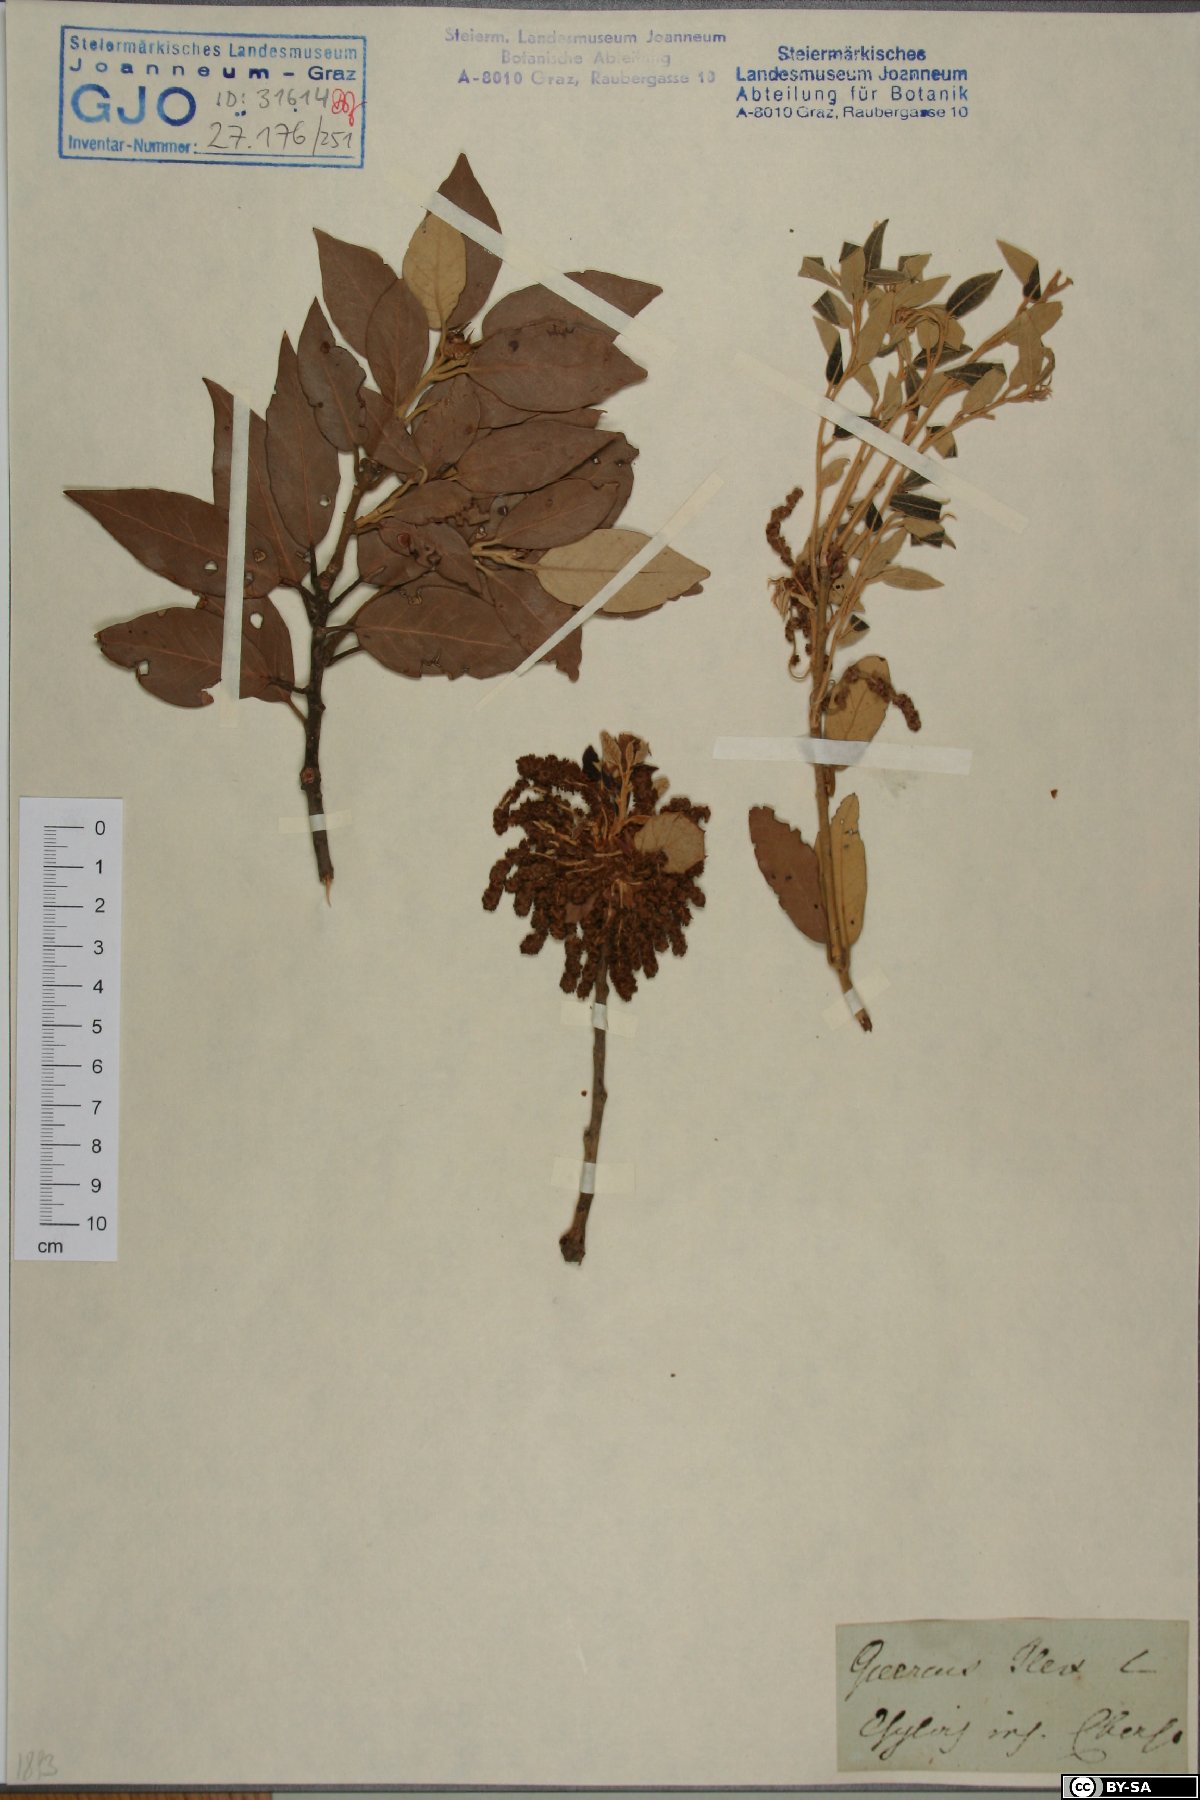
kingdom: Plantae
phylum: Tracheophyta
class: Magnoliopsida
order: Fagales
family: Fagaceae
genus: Quercus
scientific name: Quercus ilex
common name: Evergreen oak
